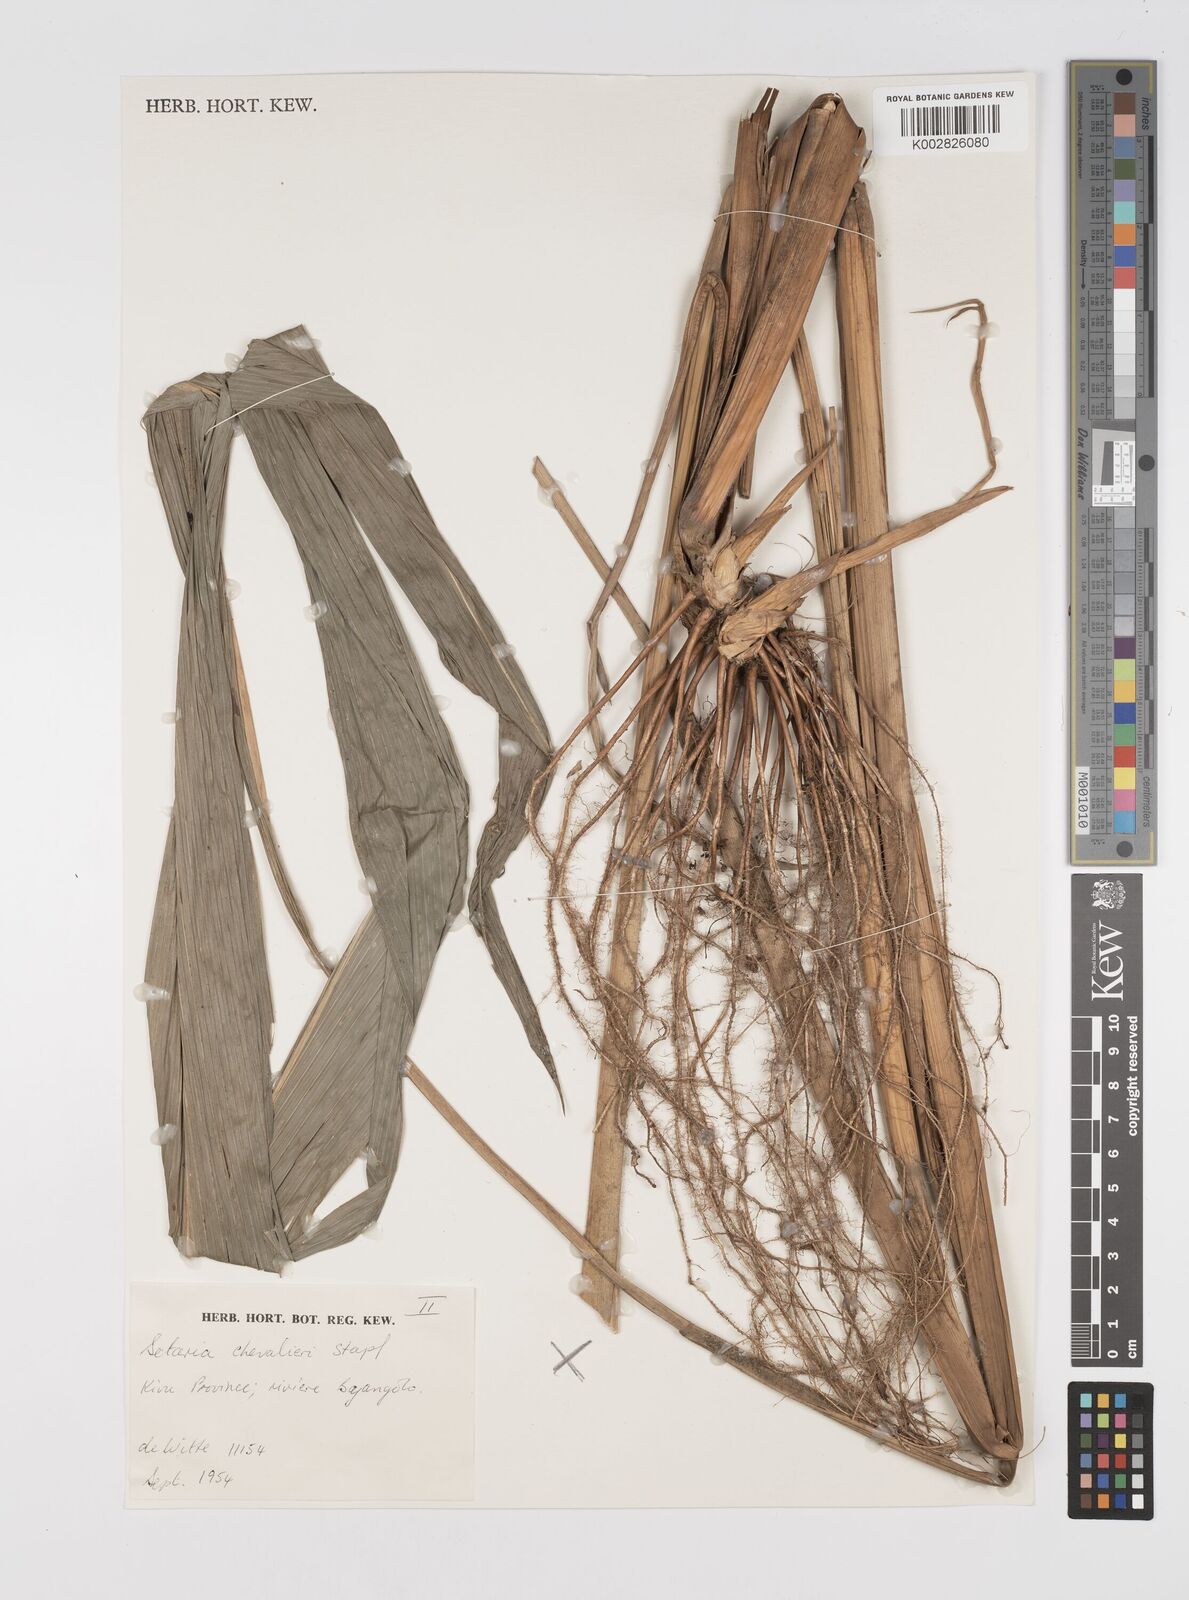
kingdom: Plantae
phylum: Tracheophyta
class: Liliopsida
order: Poales
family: Poaceae
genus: Setaria
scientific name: Setaria poiretiana
